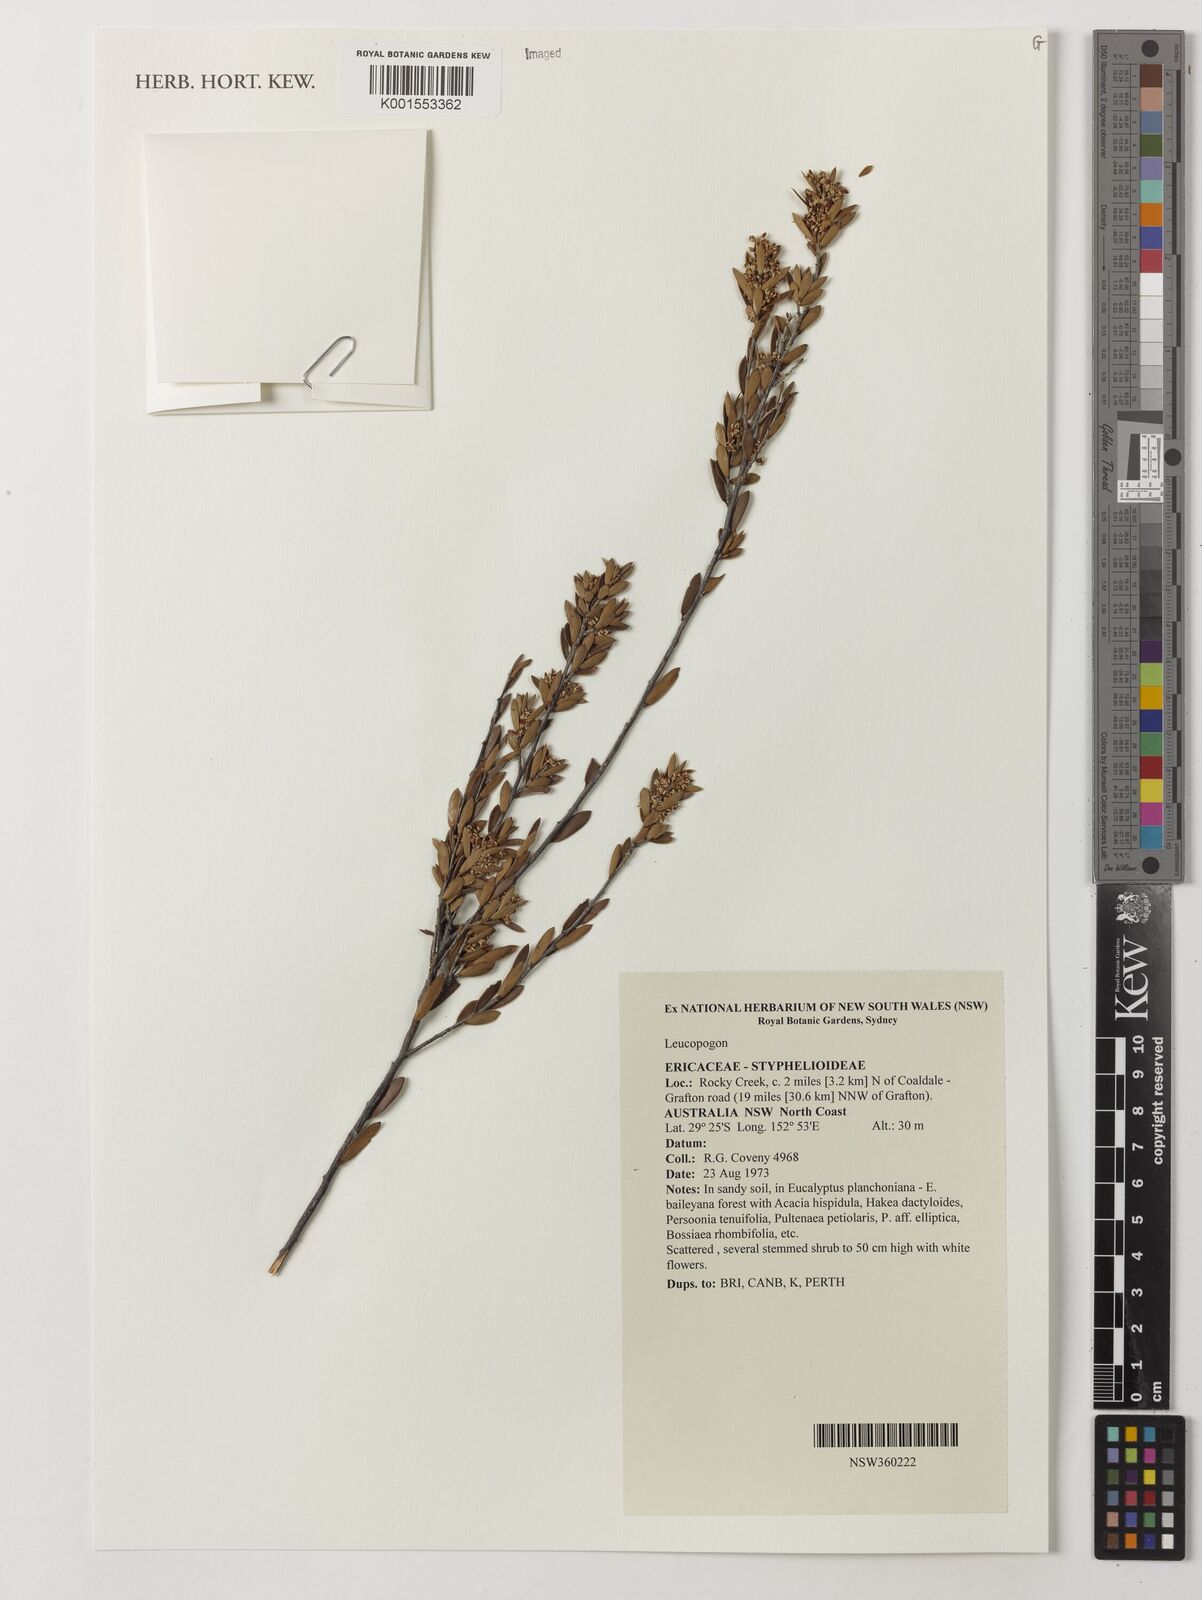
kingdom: Plantae
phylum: Tracheophyta
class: Magnoliopsida
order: Ericales
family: Ericaceae
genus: Leucopogon
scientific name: Leucopogon
